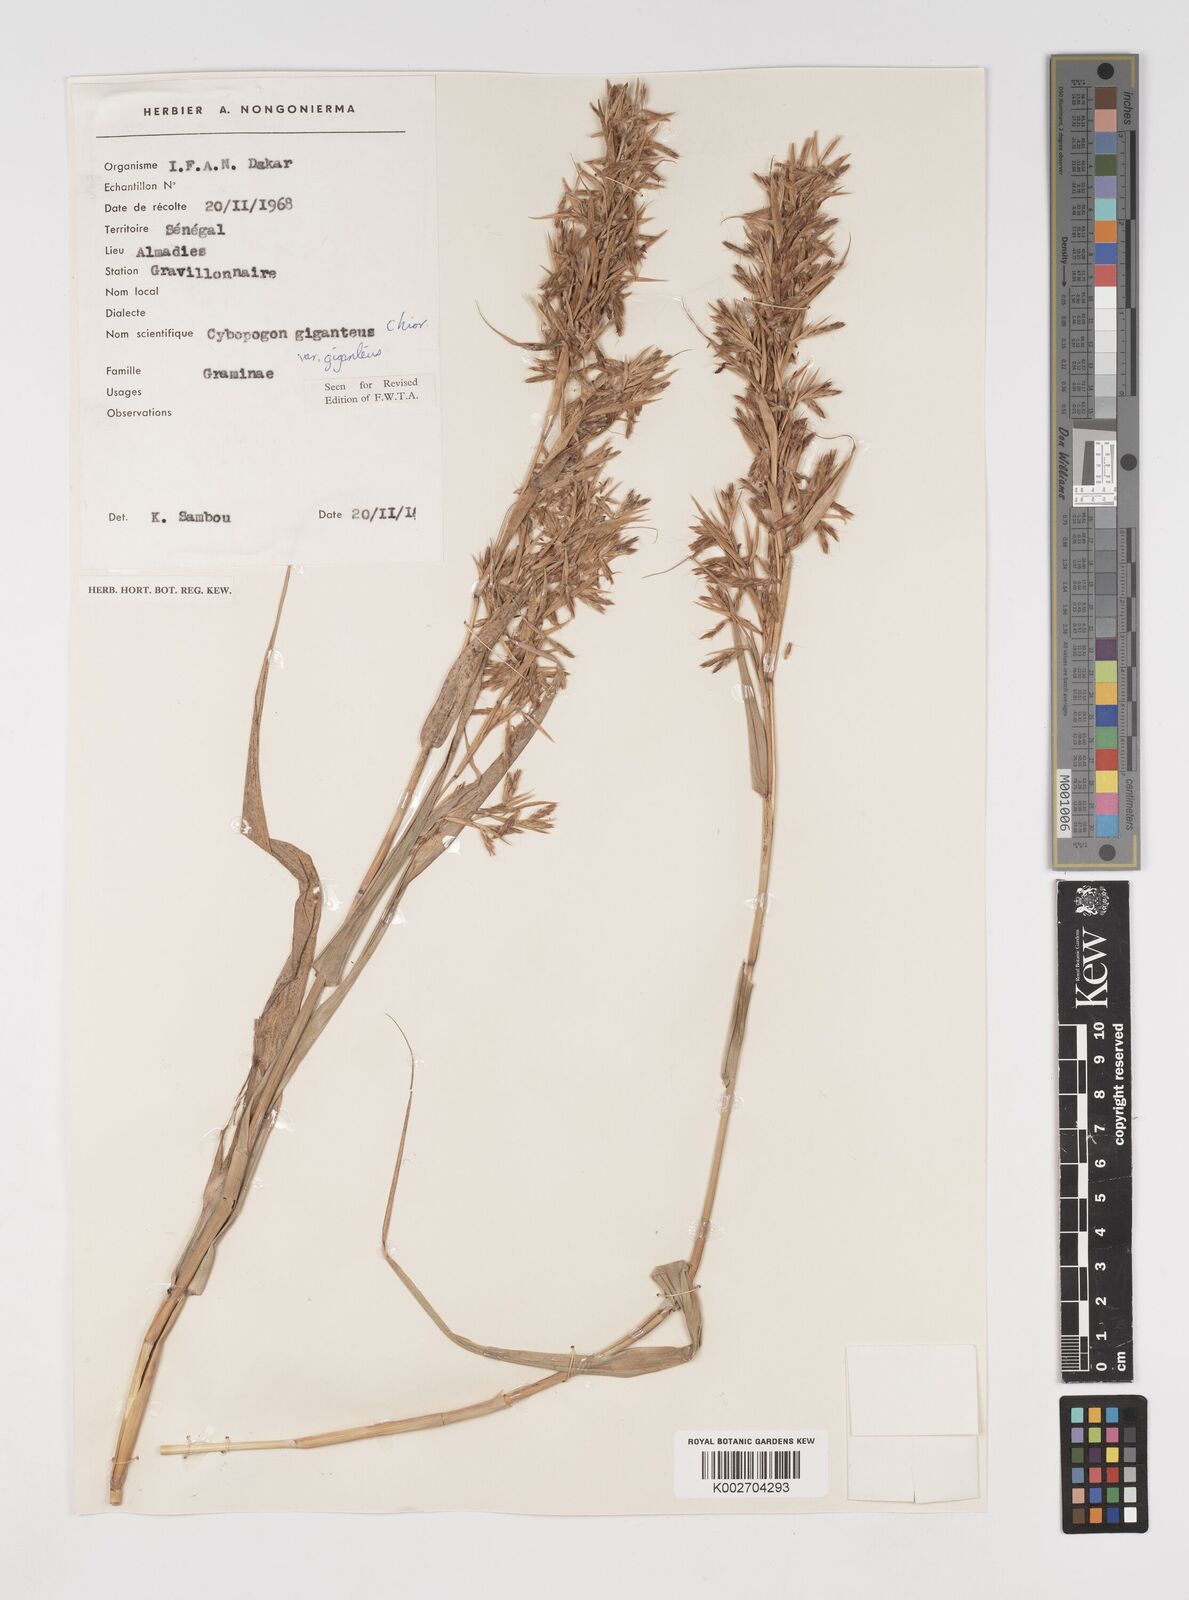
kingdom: Plantae
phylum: Tracheophyta
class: Liliopsida
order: Poales
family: Poaceae
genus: Cymbopogon
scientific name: Cymbopogon giganteus
